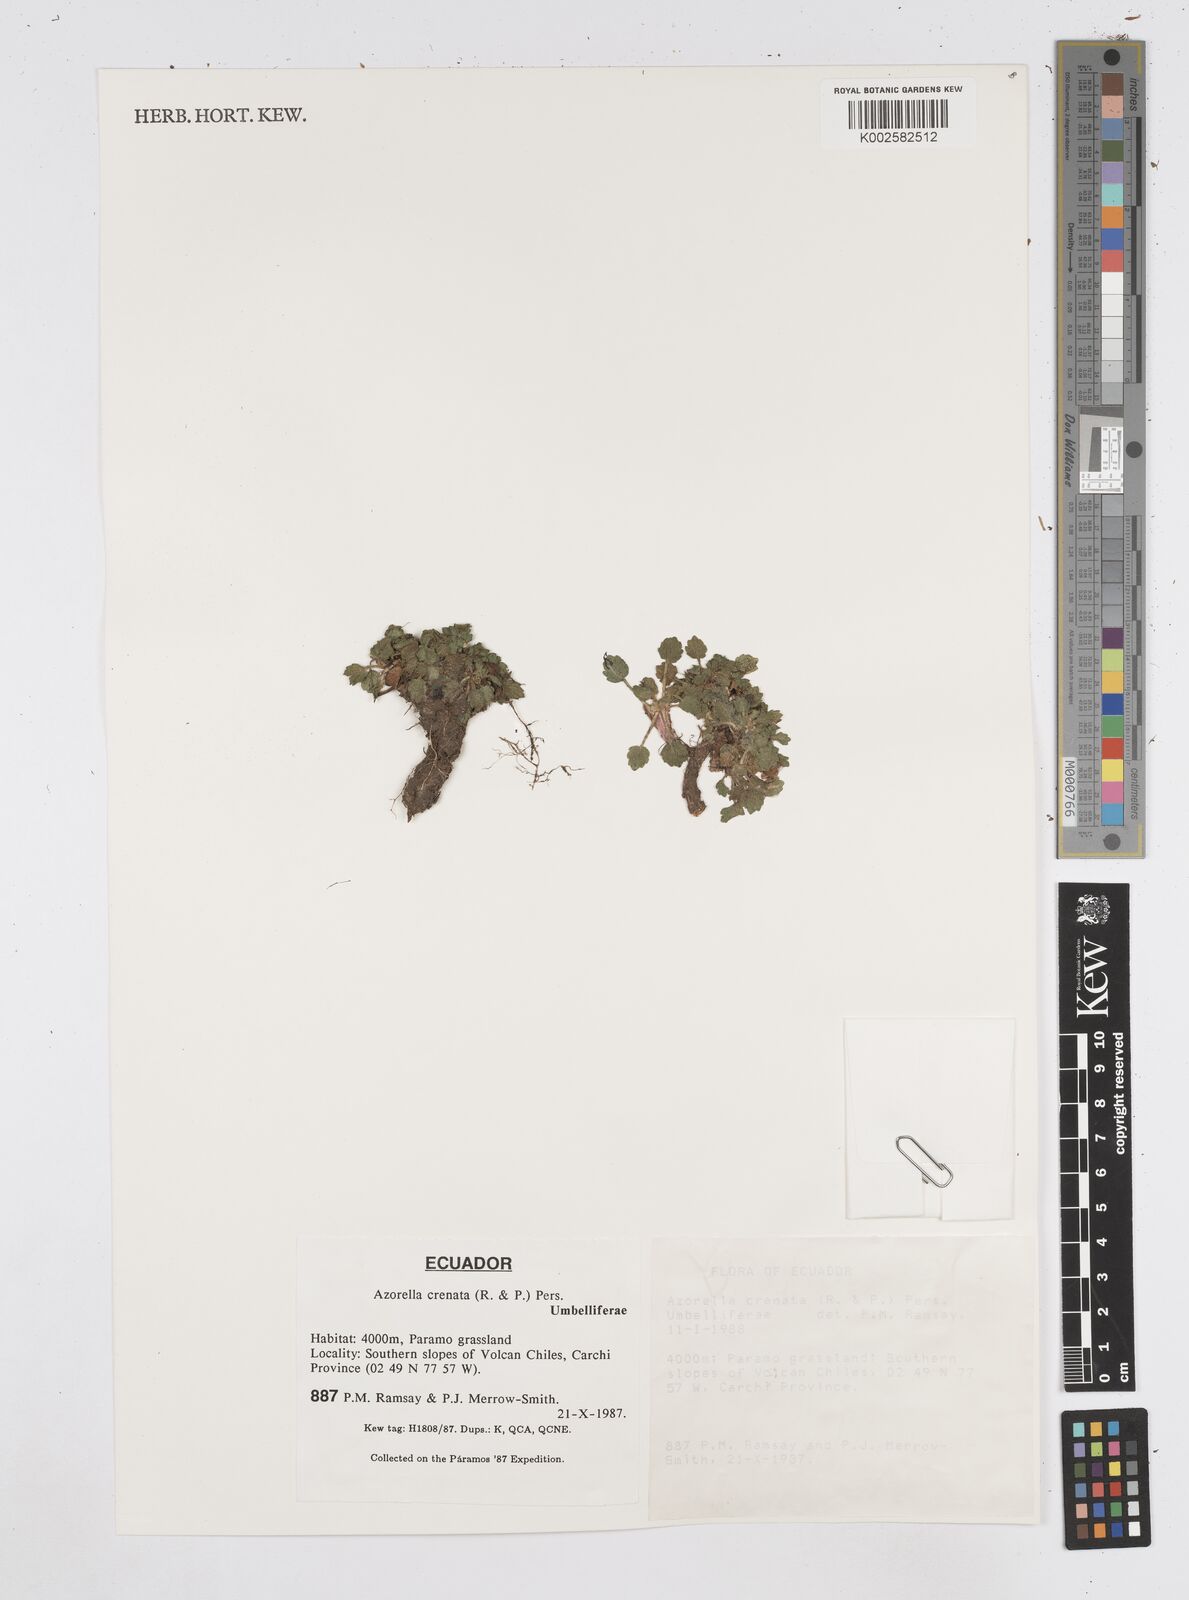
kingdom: Plantae
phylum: Tracheophyta
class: Magnoliopsida
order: Apiales
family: Apiaceae
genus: Azorella
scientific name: Azorella crenata
